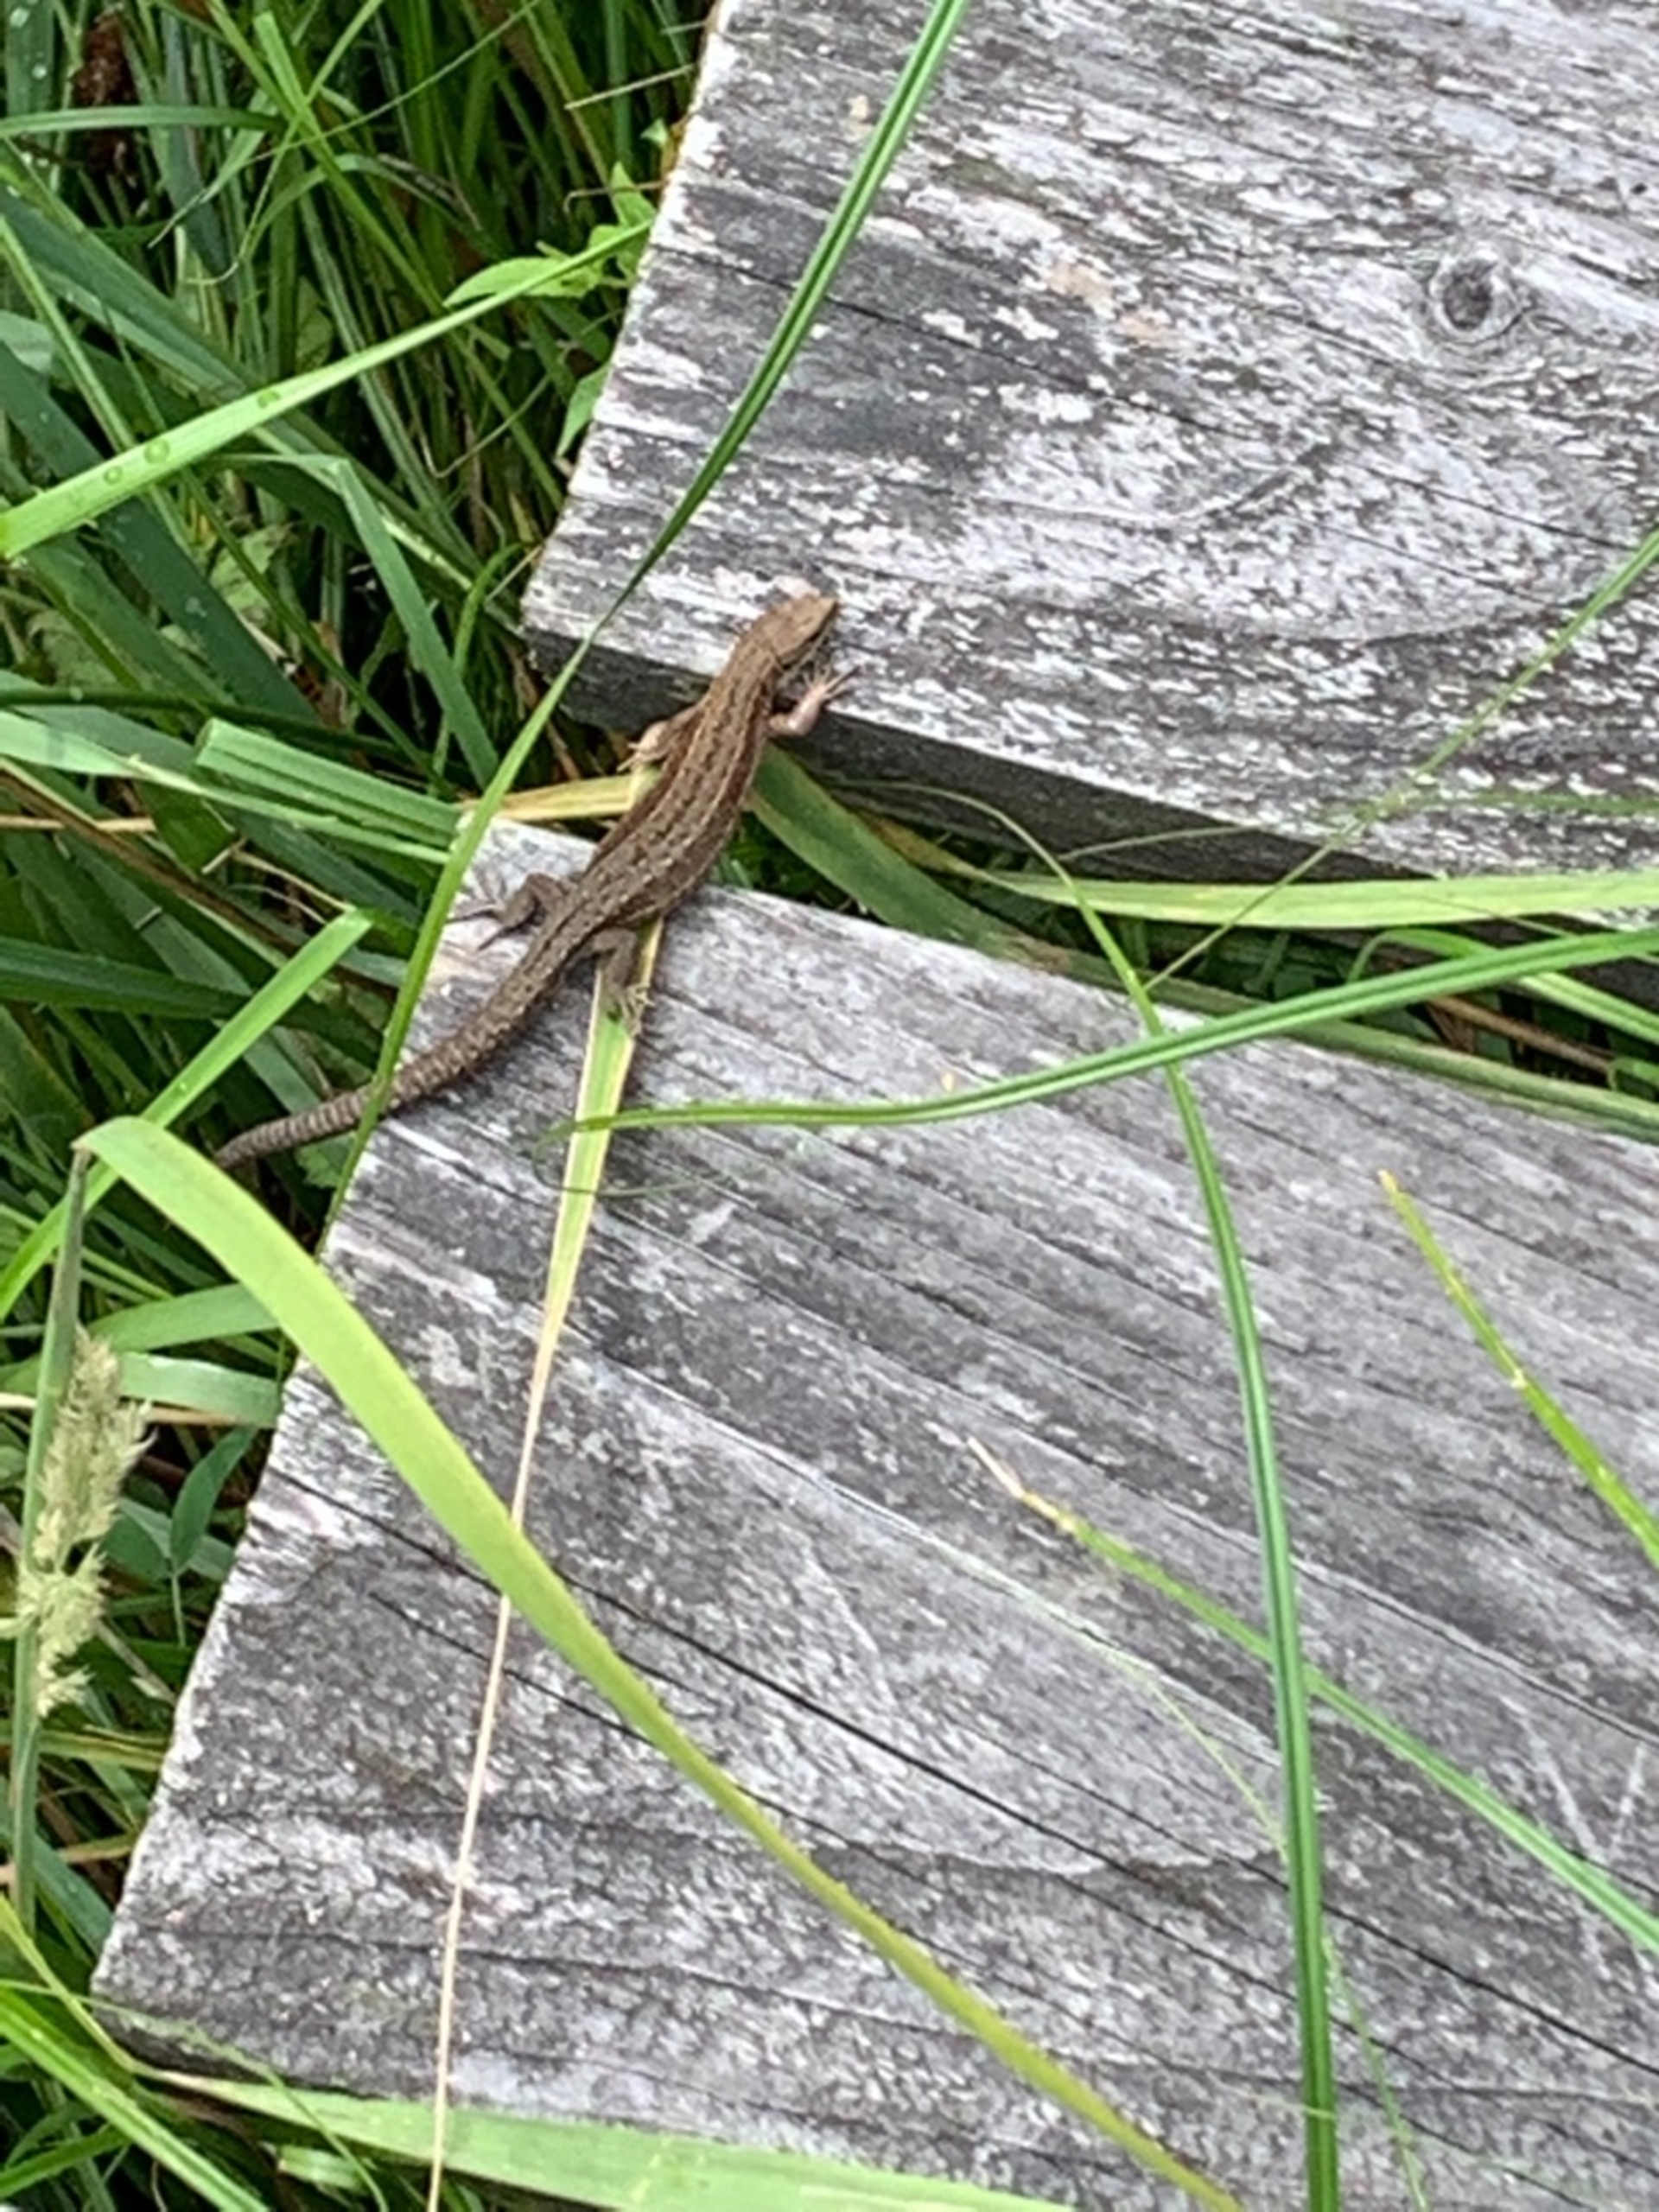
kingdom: Animalia
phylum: Chordata
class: Squamata
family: Lacertidae
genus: Zootoca
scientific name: Zootoca vivipara
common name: Skovfirben
